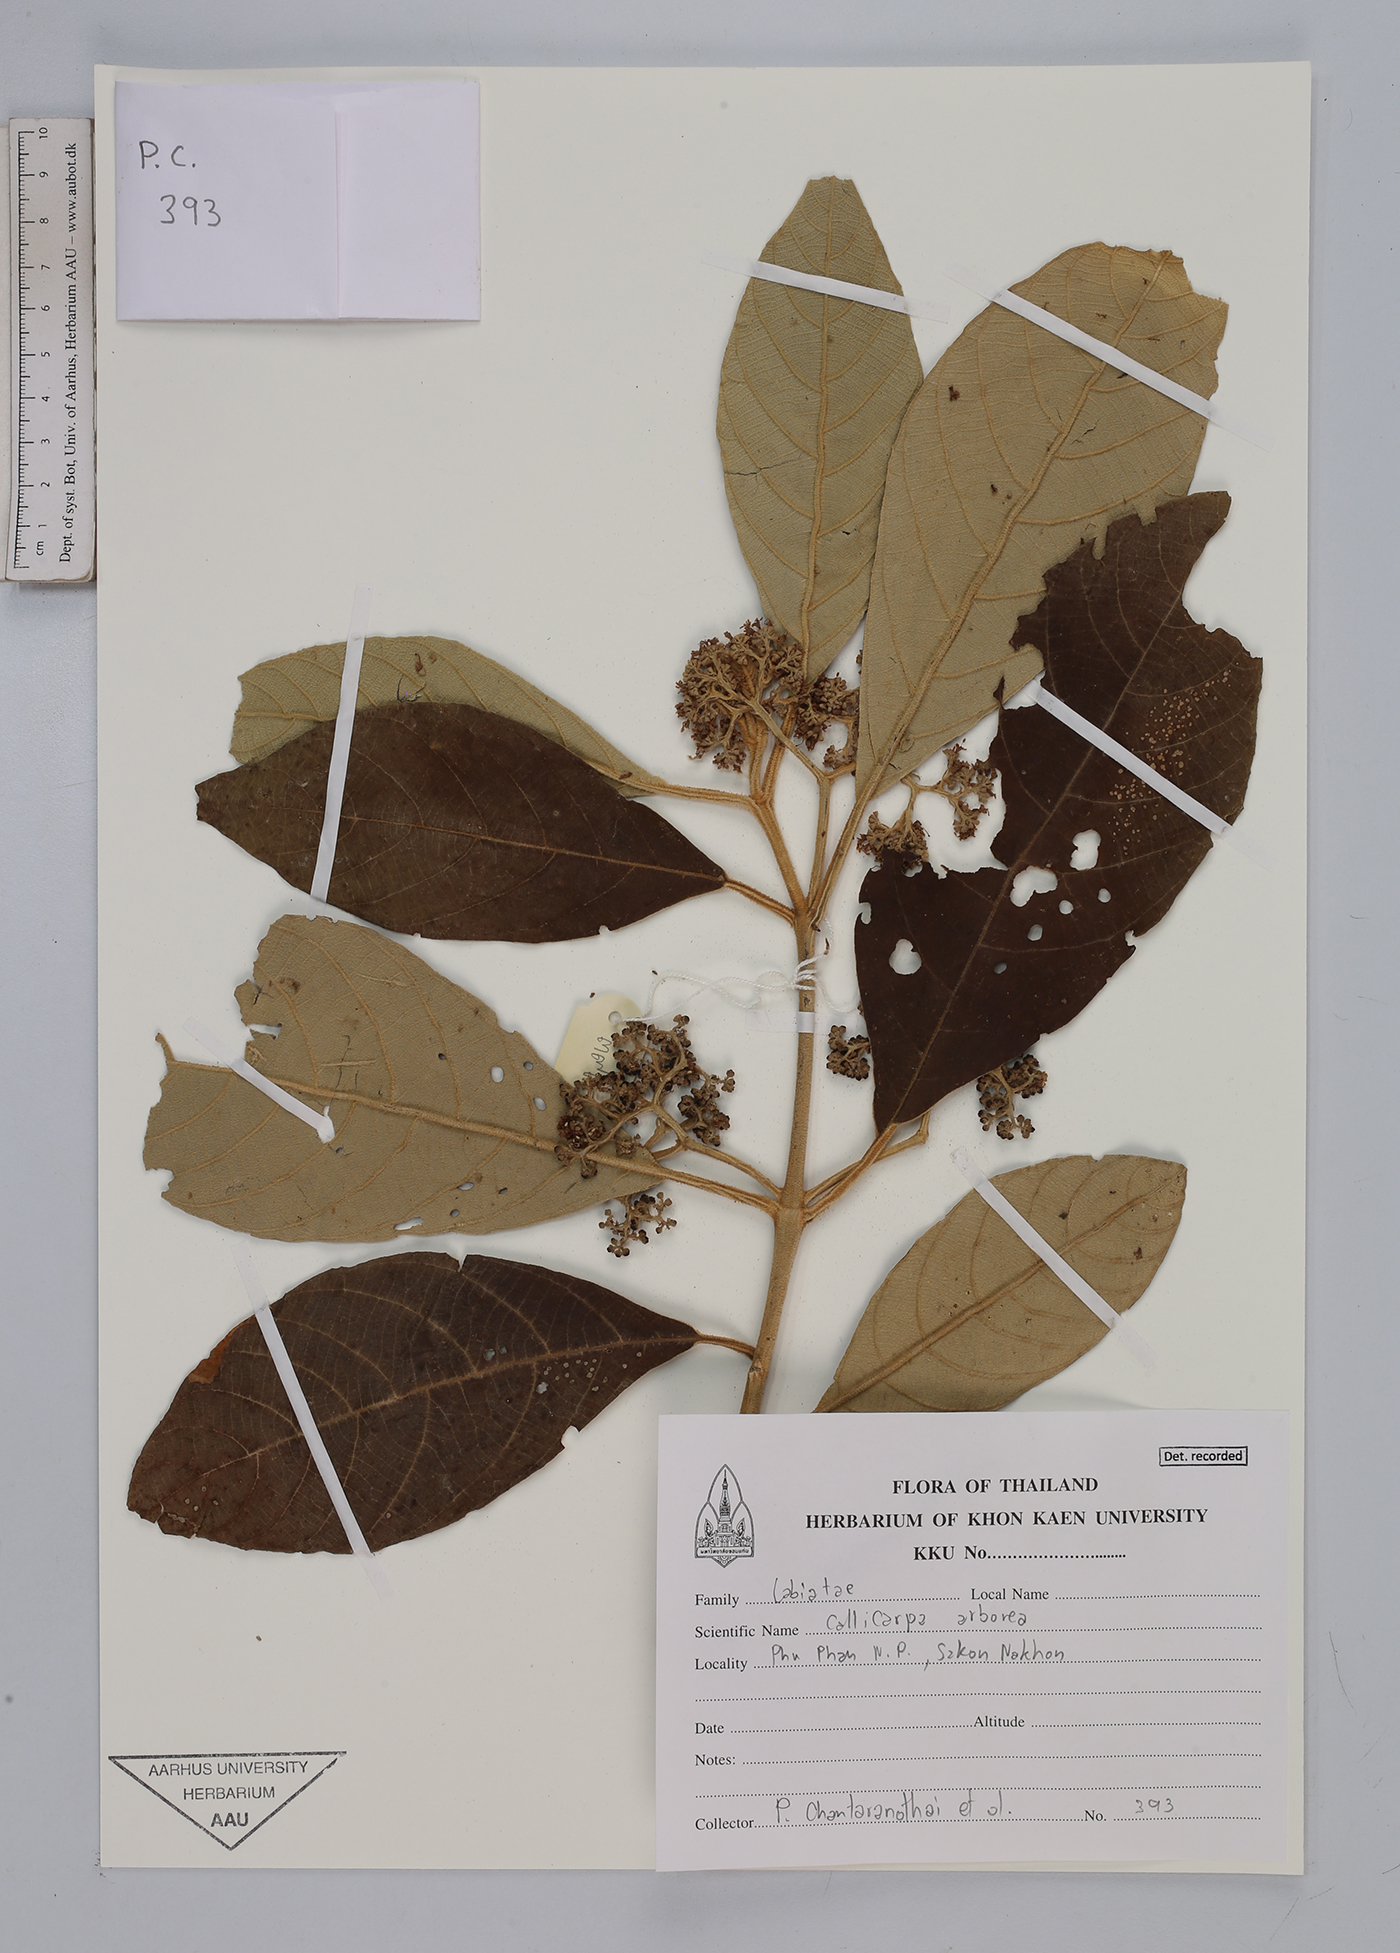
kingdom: Plantae
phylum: Tracheophyta
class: Magnoliopsida
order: Lamiales
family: Lamiaceae
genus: Callicarpa
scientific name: Callicarpa arborea
